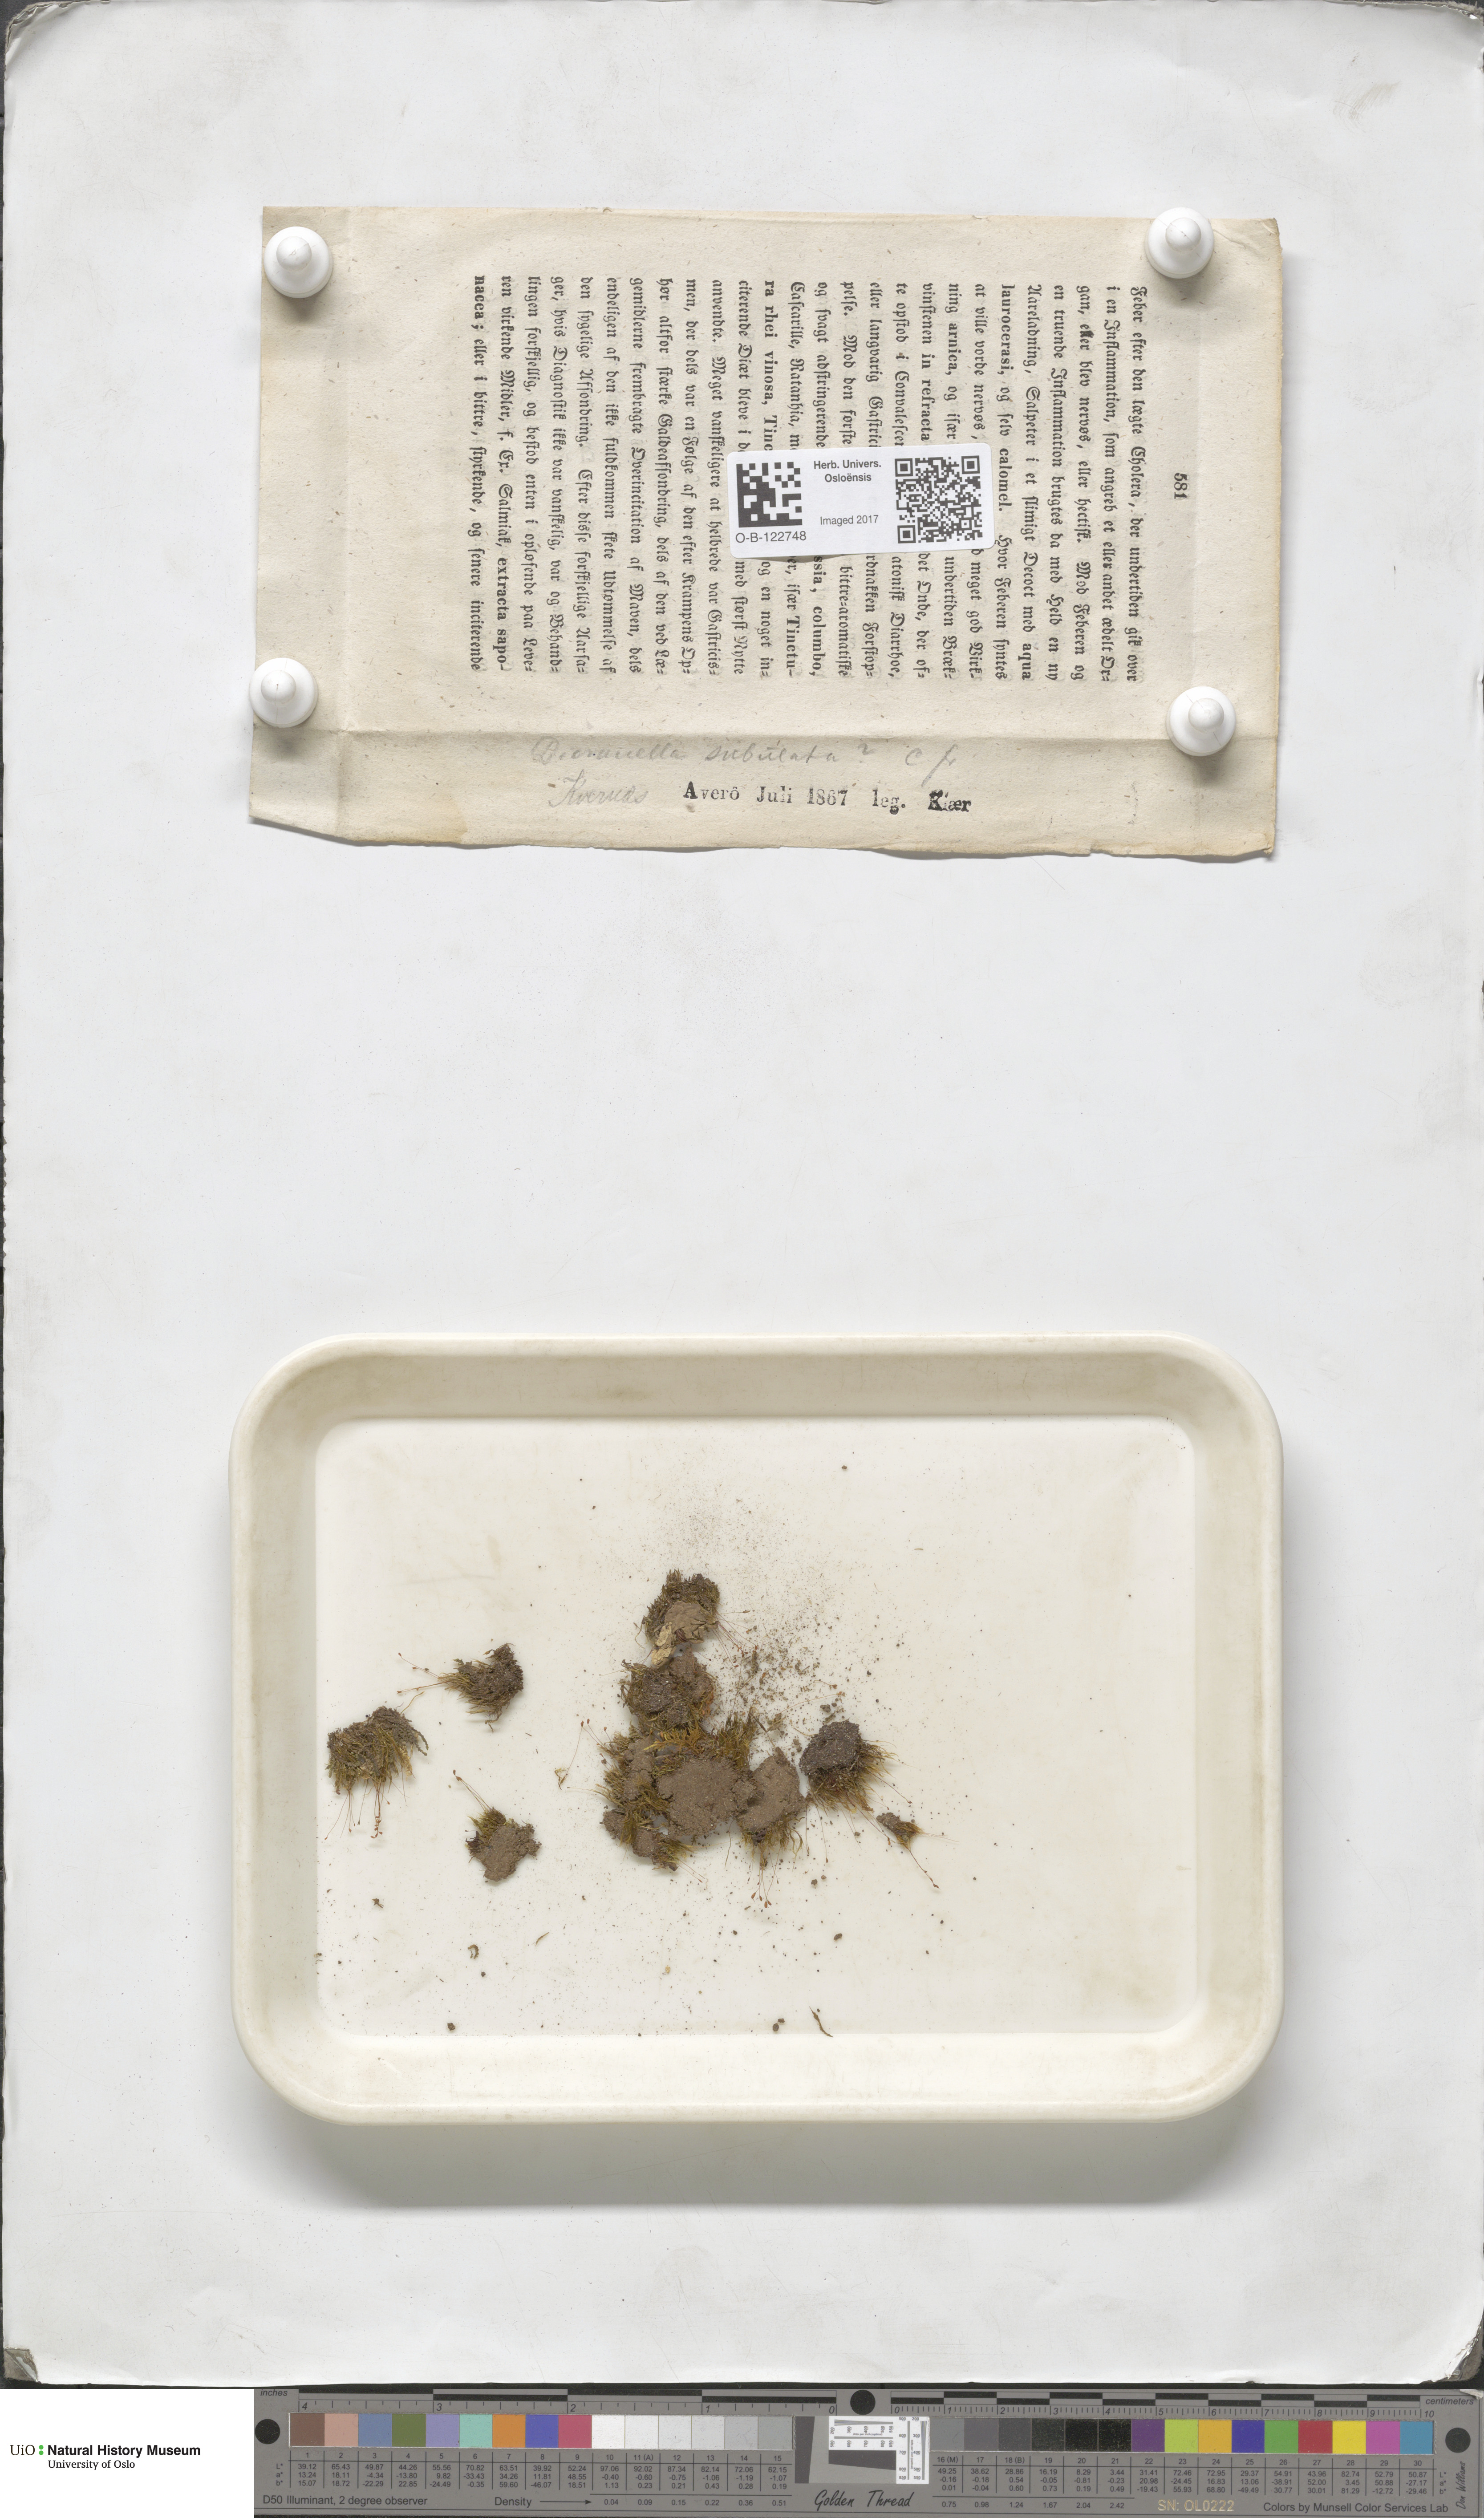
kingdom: Plantae
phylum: Bryophyta
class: Bryopsida
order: Dicranales
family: Dicranellaceae
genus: Dicranella
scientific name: Dicranella subulata
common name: Awl-leaved forklet moss
